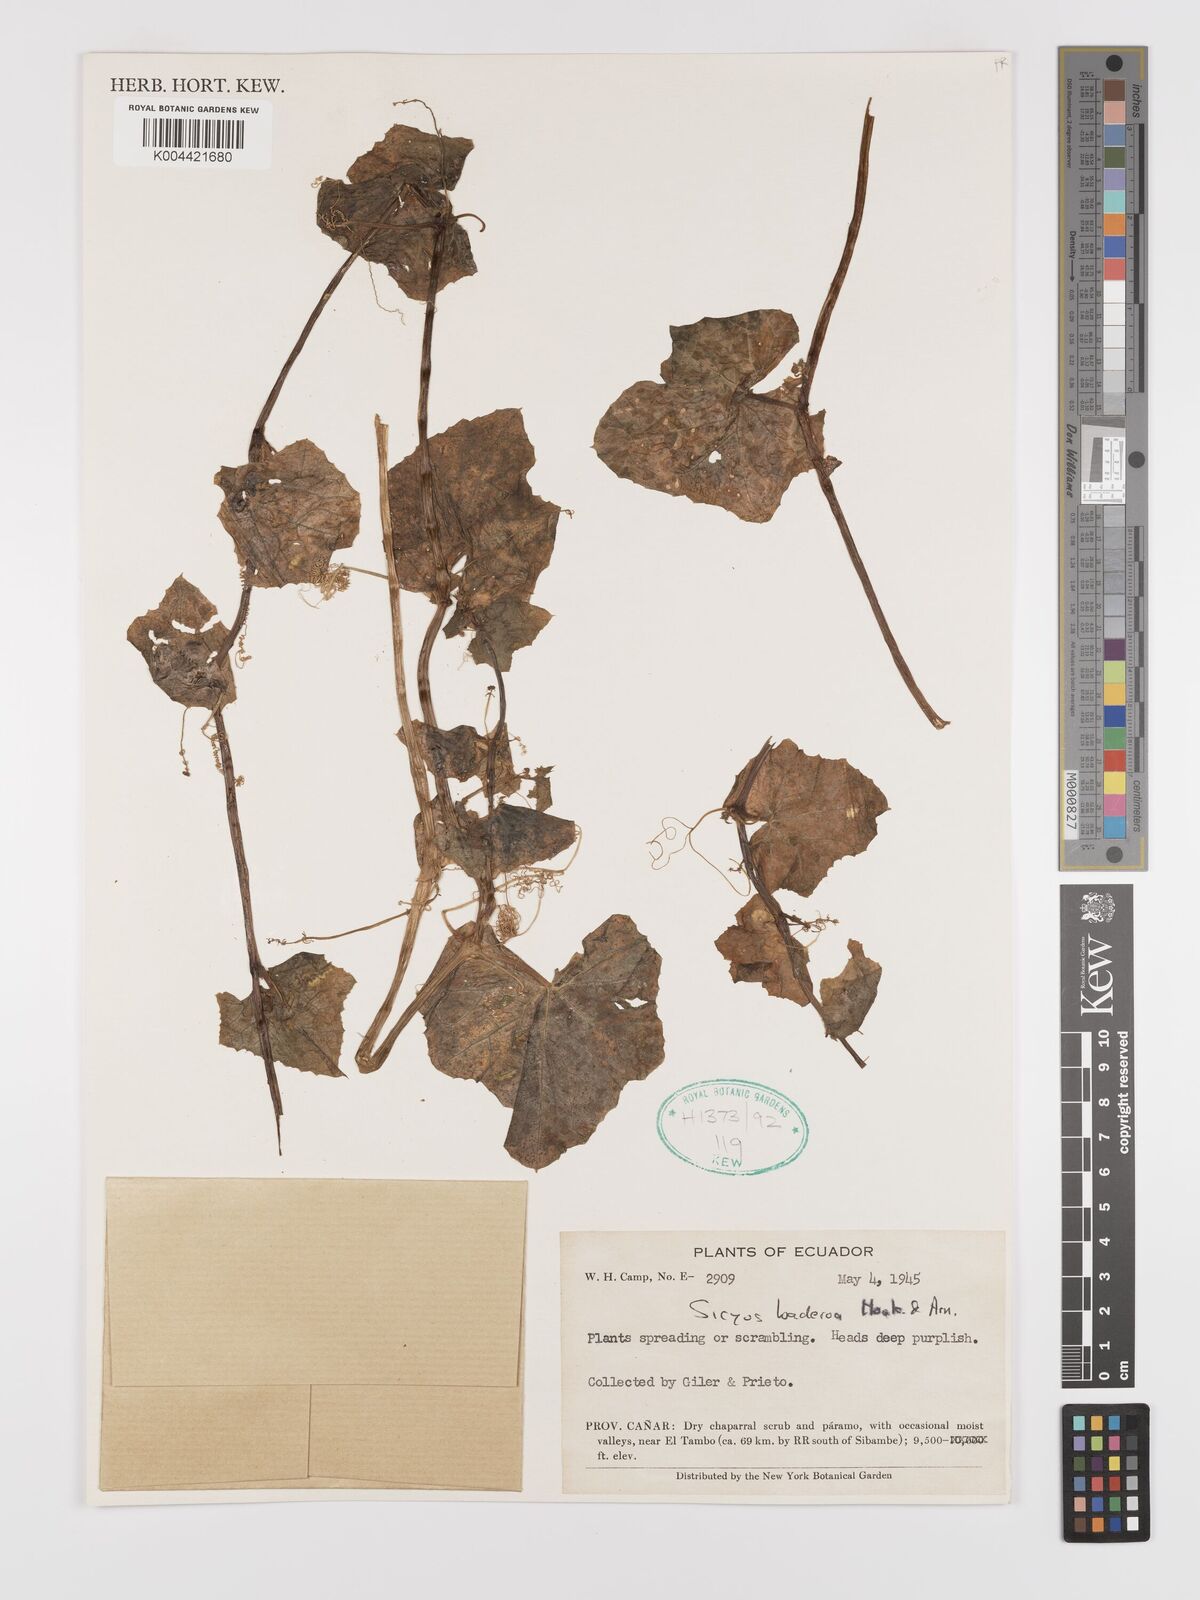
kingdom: Plantae
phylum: Tracheophyta
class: Magnoliopsida
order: Cucurbitales
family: Cucurbitaceae
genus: Sicyos
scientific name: Sicyos baderoa
